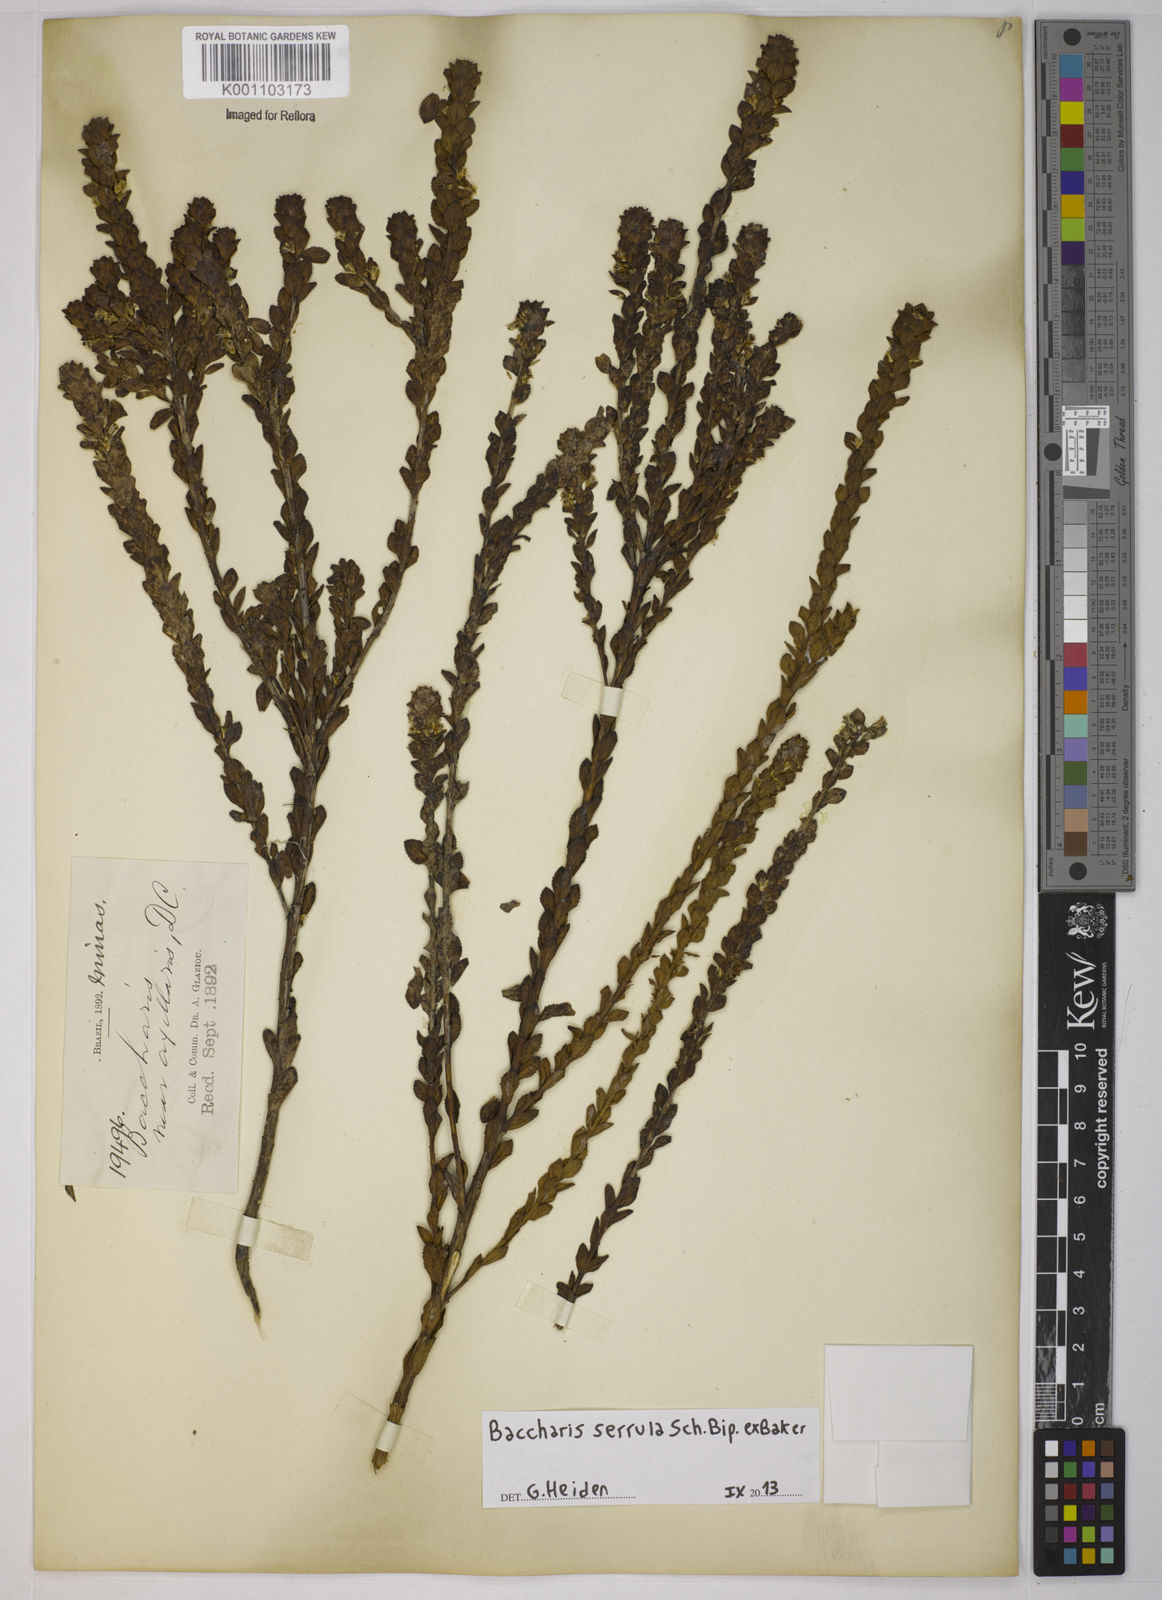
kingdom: Plantae
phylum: Tracheophyta
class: Magnoliopsida
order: Asterales
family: Asteraceae
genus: Baccharis
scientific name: Baccharis serrula
